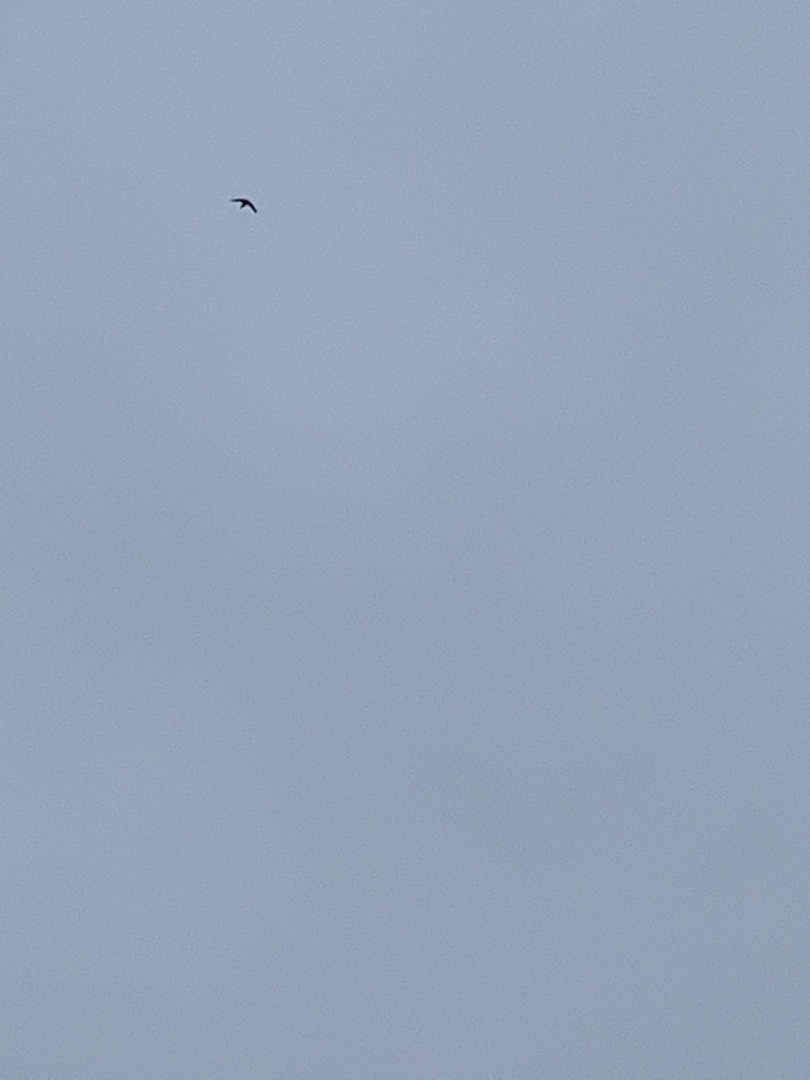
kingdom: Animalia
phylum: Chordata
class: Aves
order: Apodiformes
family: Apodidae
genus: Apus
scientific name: Apus apus
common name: Mursejler
